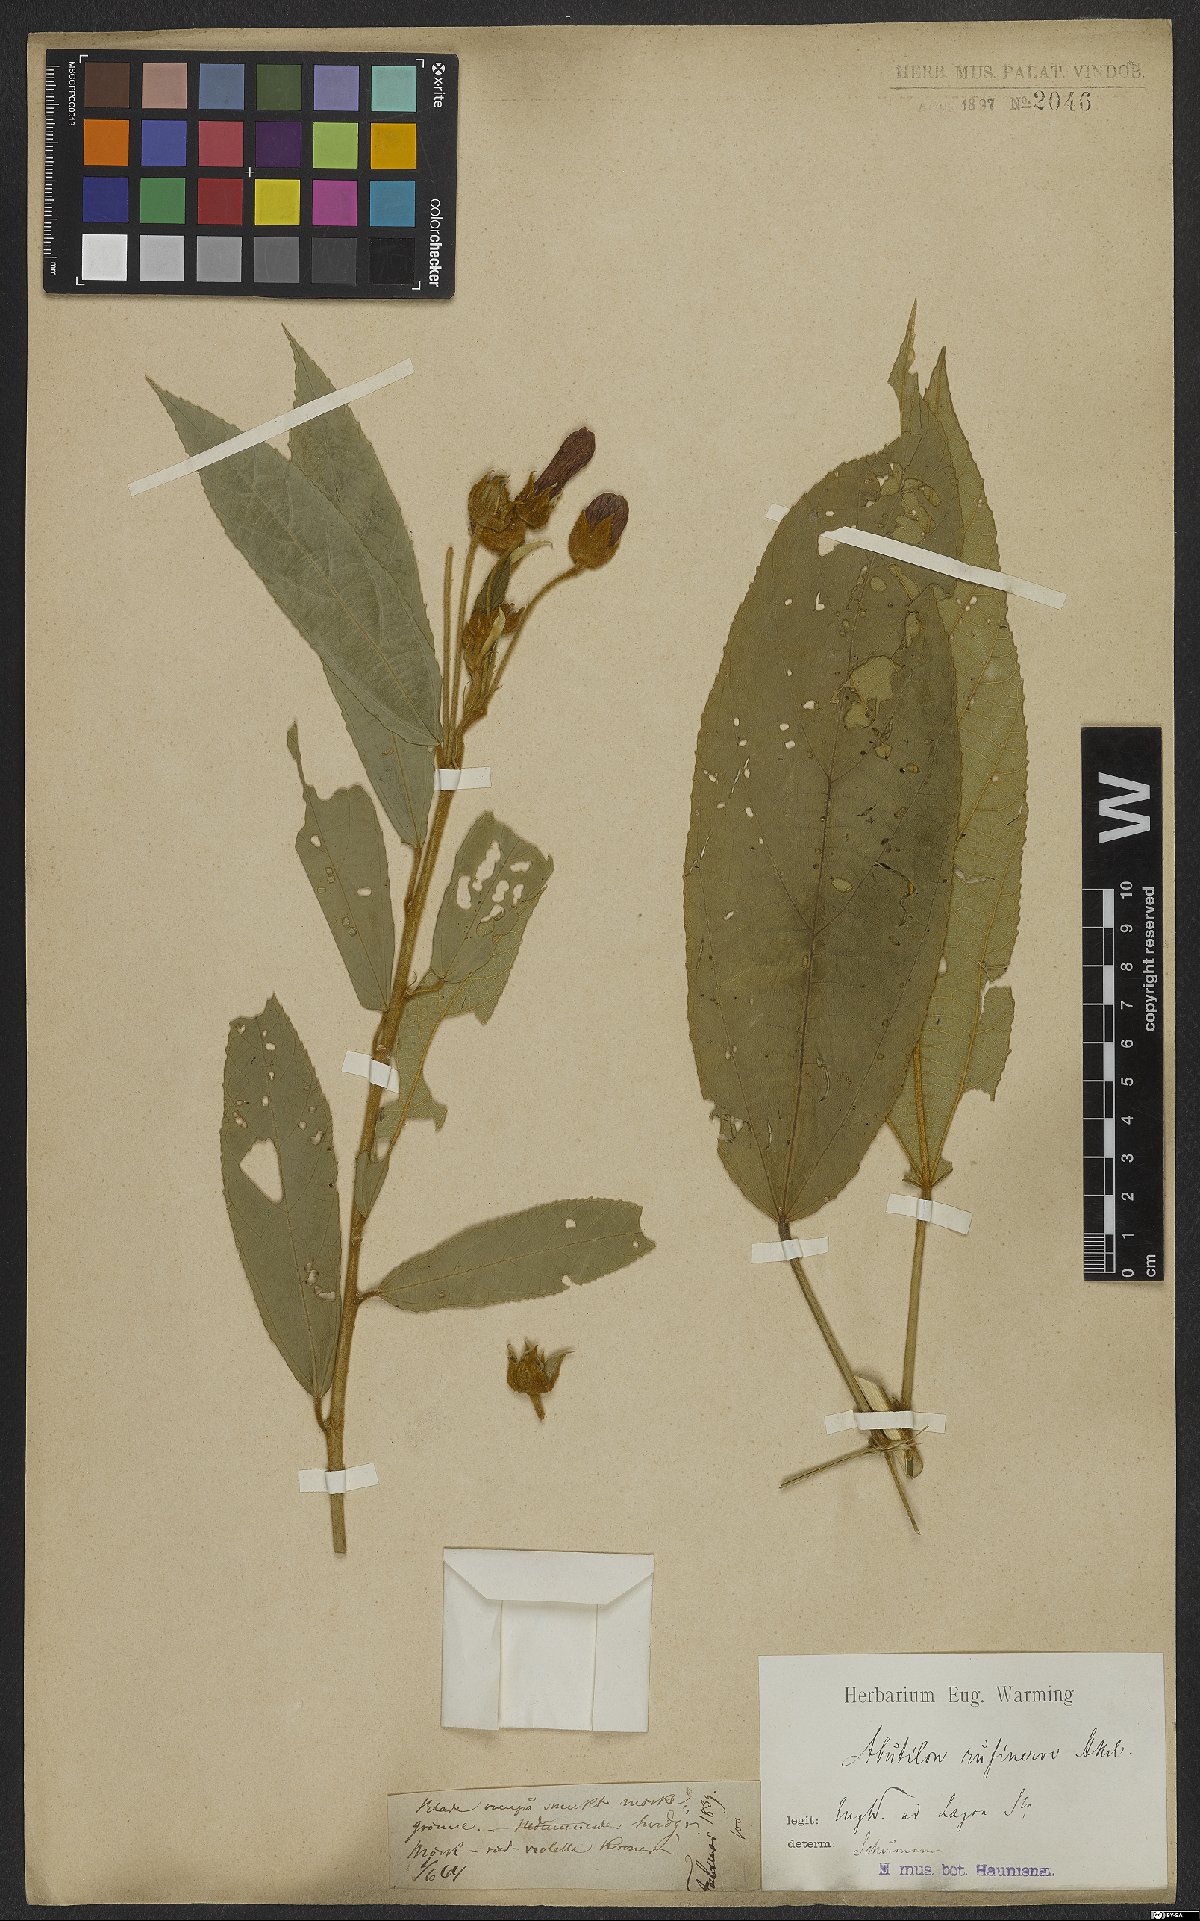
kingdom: Plantae
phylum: Tracheophyta
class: Magnoliopsida
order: Malvales
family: Malvaceae
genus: Callianthe
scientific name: Callianthe rufinerva
